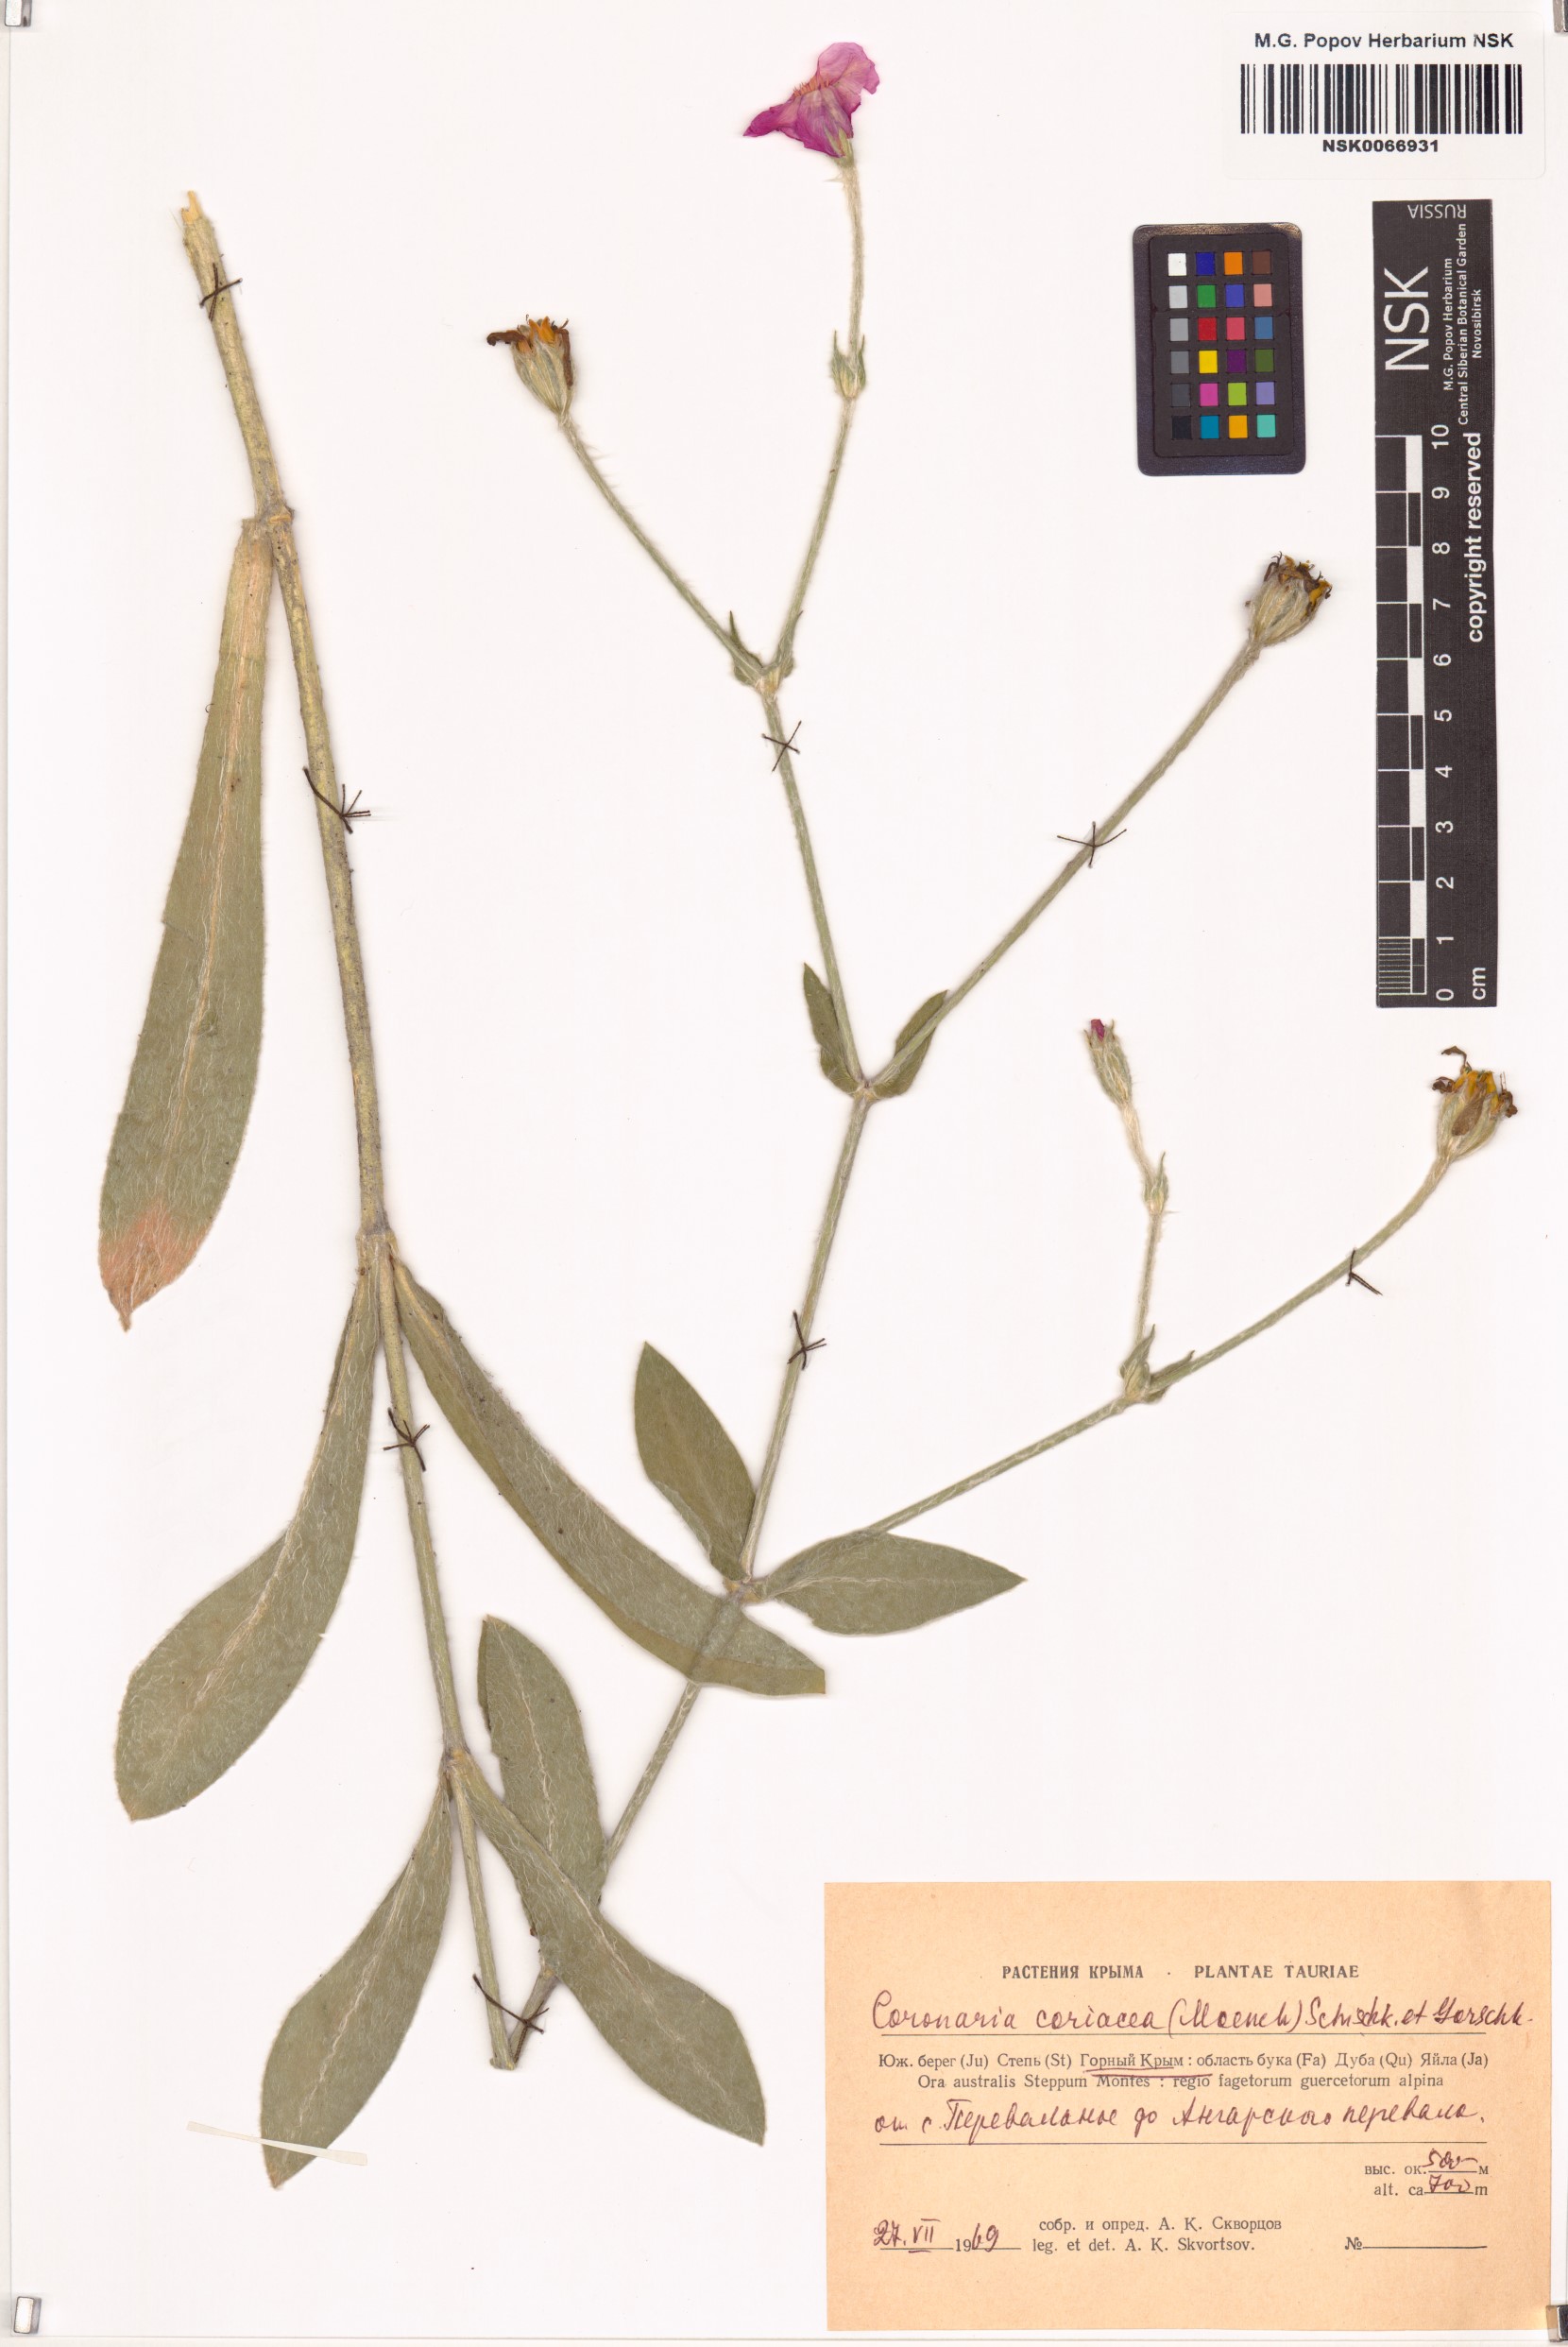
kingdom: Plantae
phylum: Tracheophyta
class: Magnoliopsida
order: Caryophyllales
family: Caryophyllaceae
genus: Silene
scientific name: Silene coronaria
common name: Rose campion
